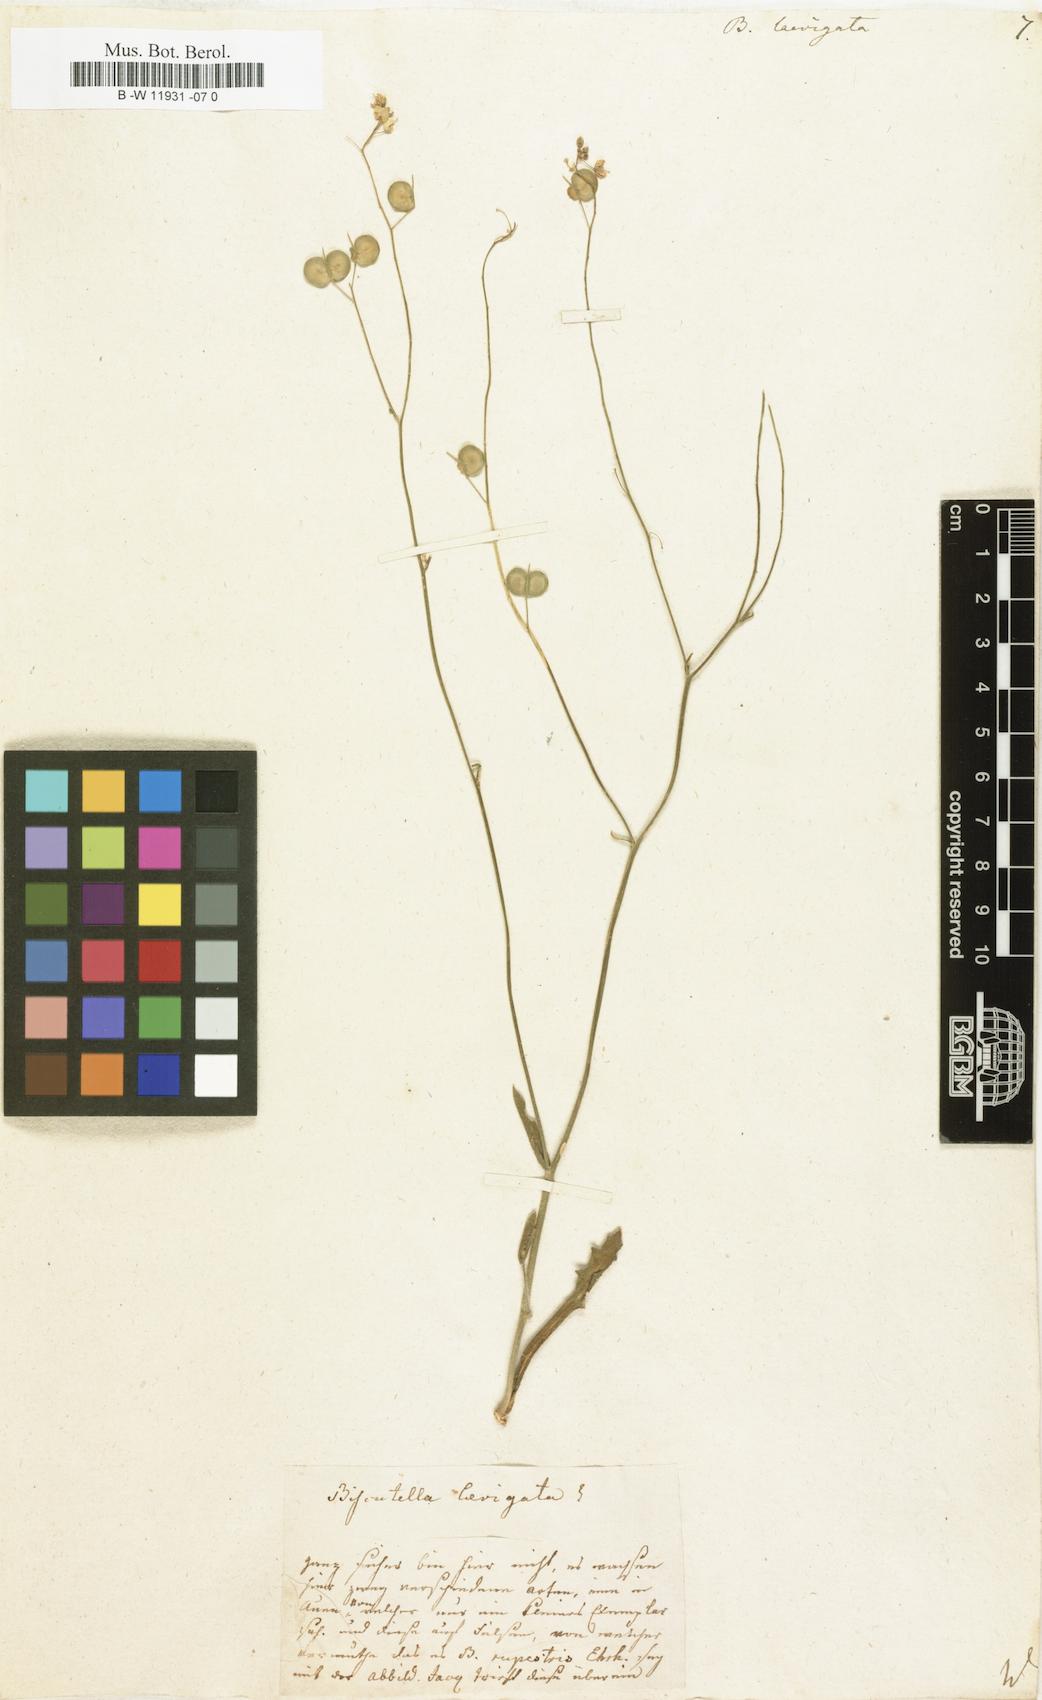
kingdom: Plantae
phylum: Tracheophyta
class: Magnoliopsida
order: Brassicales
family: Brassicaceae
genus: Biscutella
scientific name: Biscutella laevigata
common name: Buckler mustard
